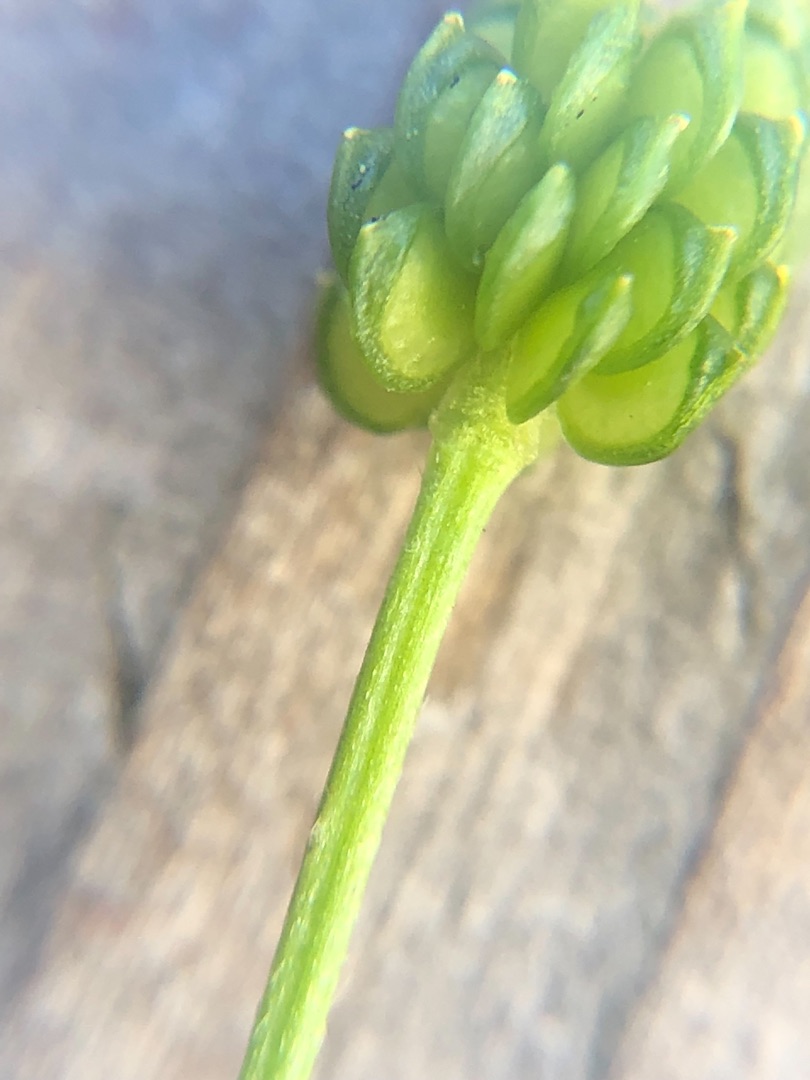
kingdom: Plantae
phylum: Tracheophyta
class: Magnoliopsida
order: Ranunculales
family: Ranunculaceae
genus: Ranunculus
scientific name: Ranunculus repens
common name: Lav ranunkel
